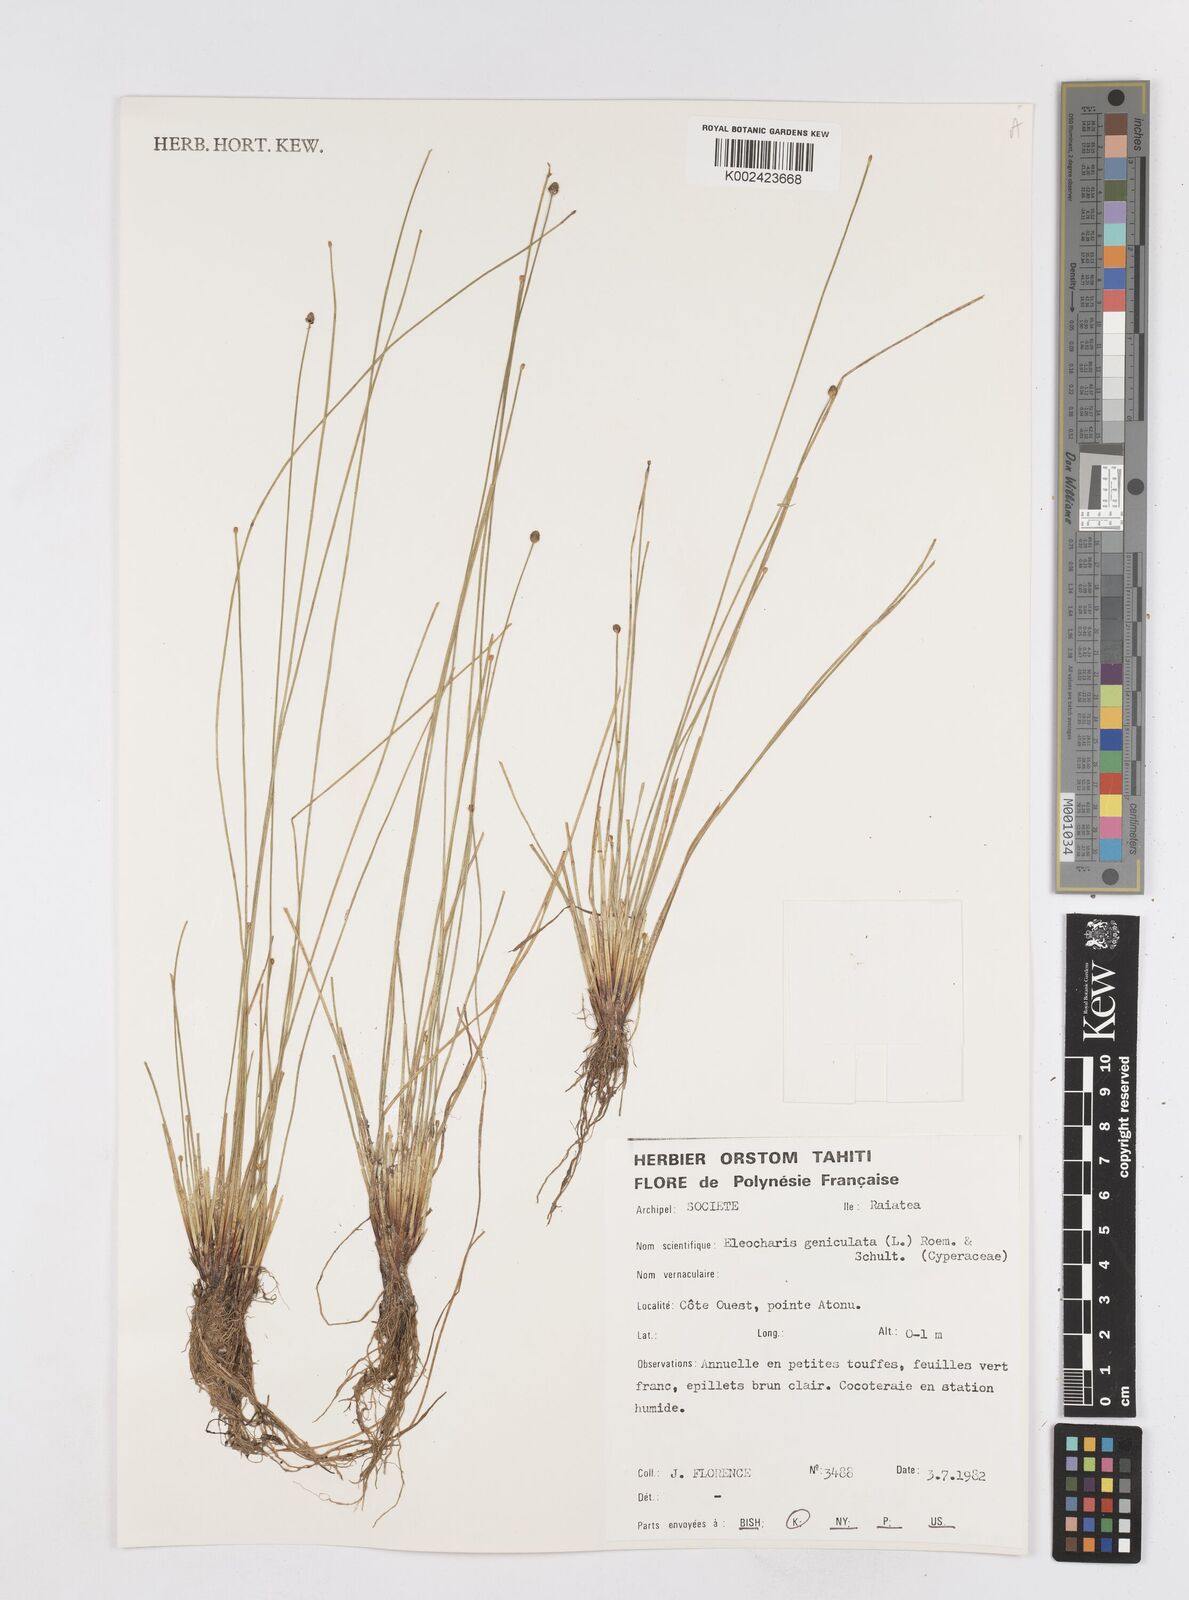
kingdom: Plantae
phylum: Tracheophyta
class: Liliopsida
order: Poales
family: Cyperaceae
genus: Eleocharis
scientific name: Eleocharis geniculata
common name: Canada spikesedge
